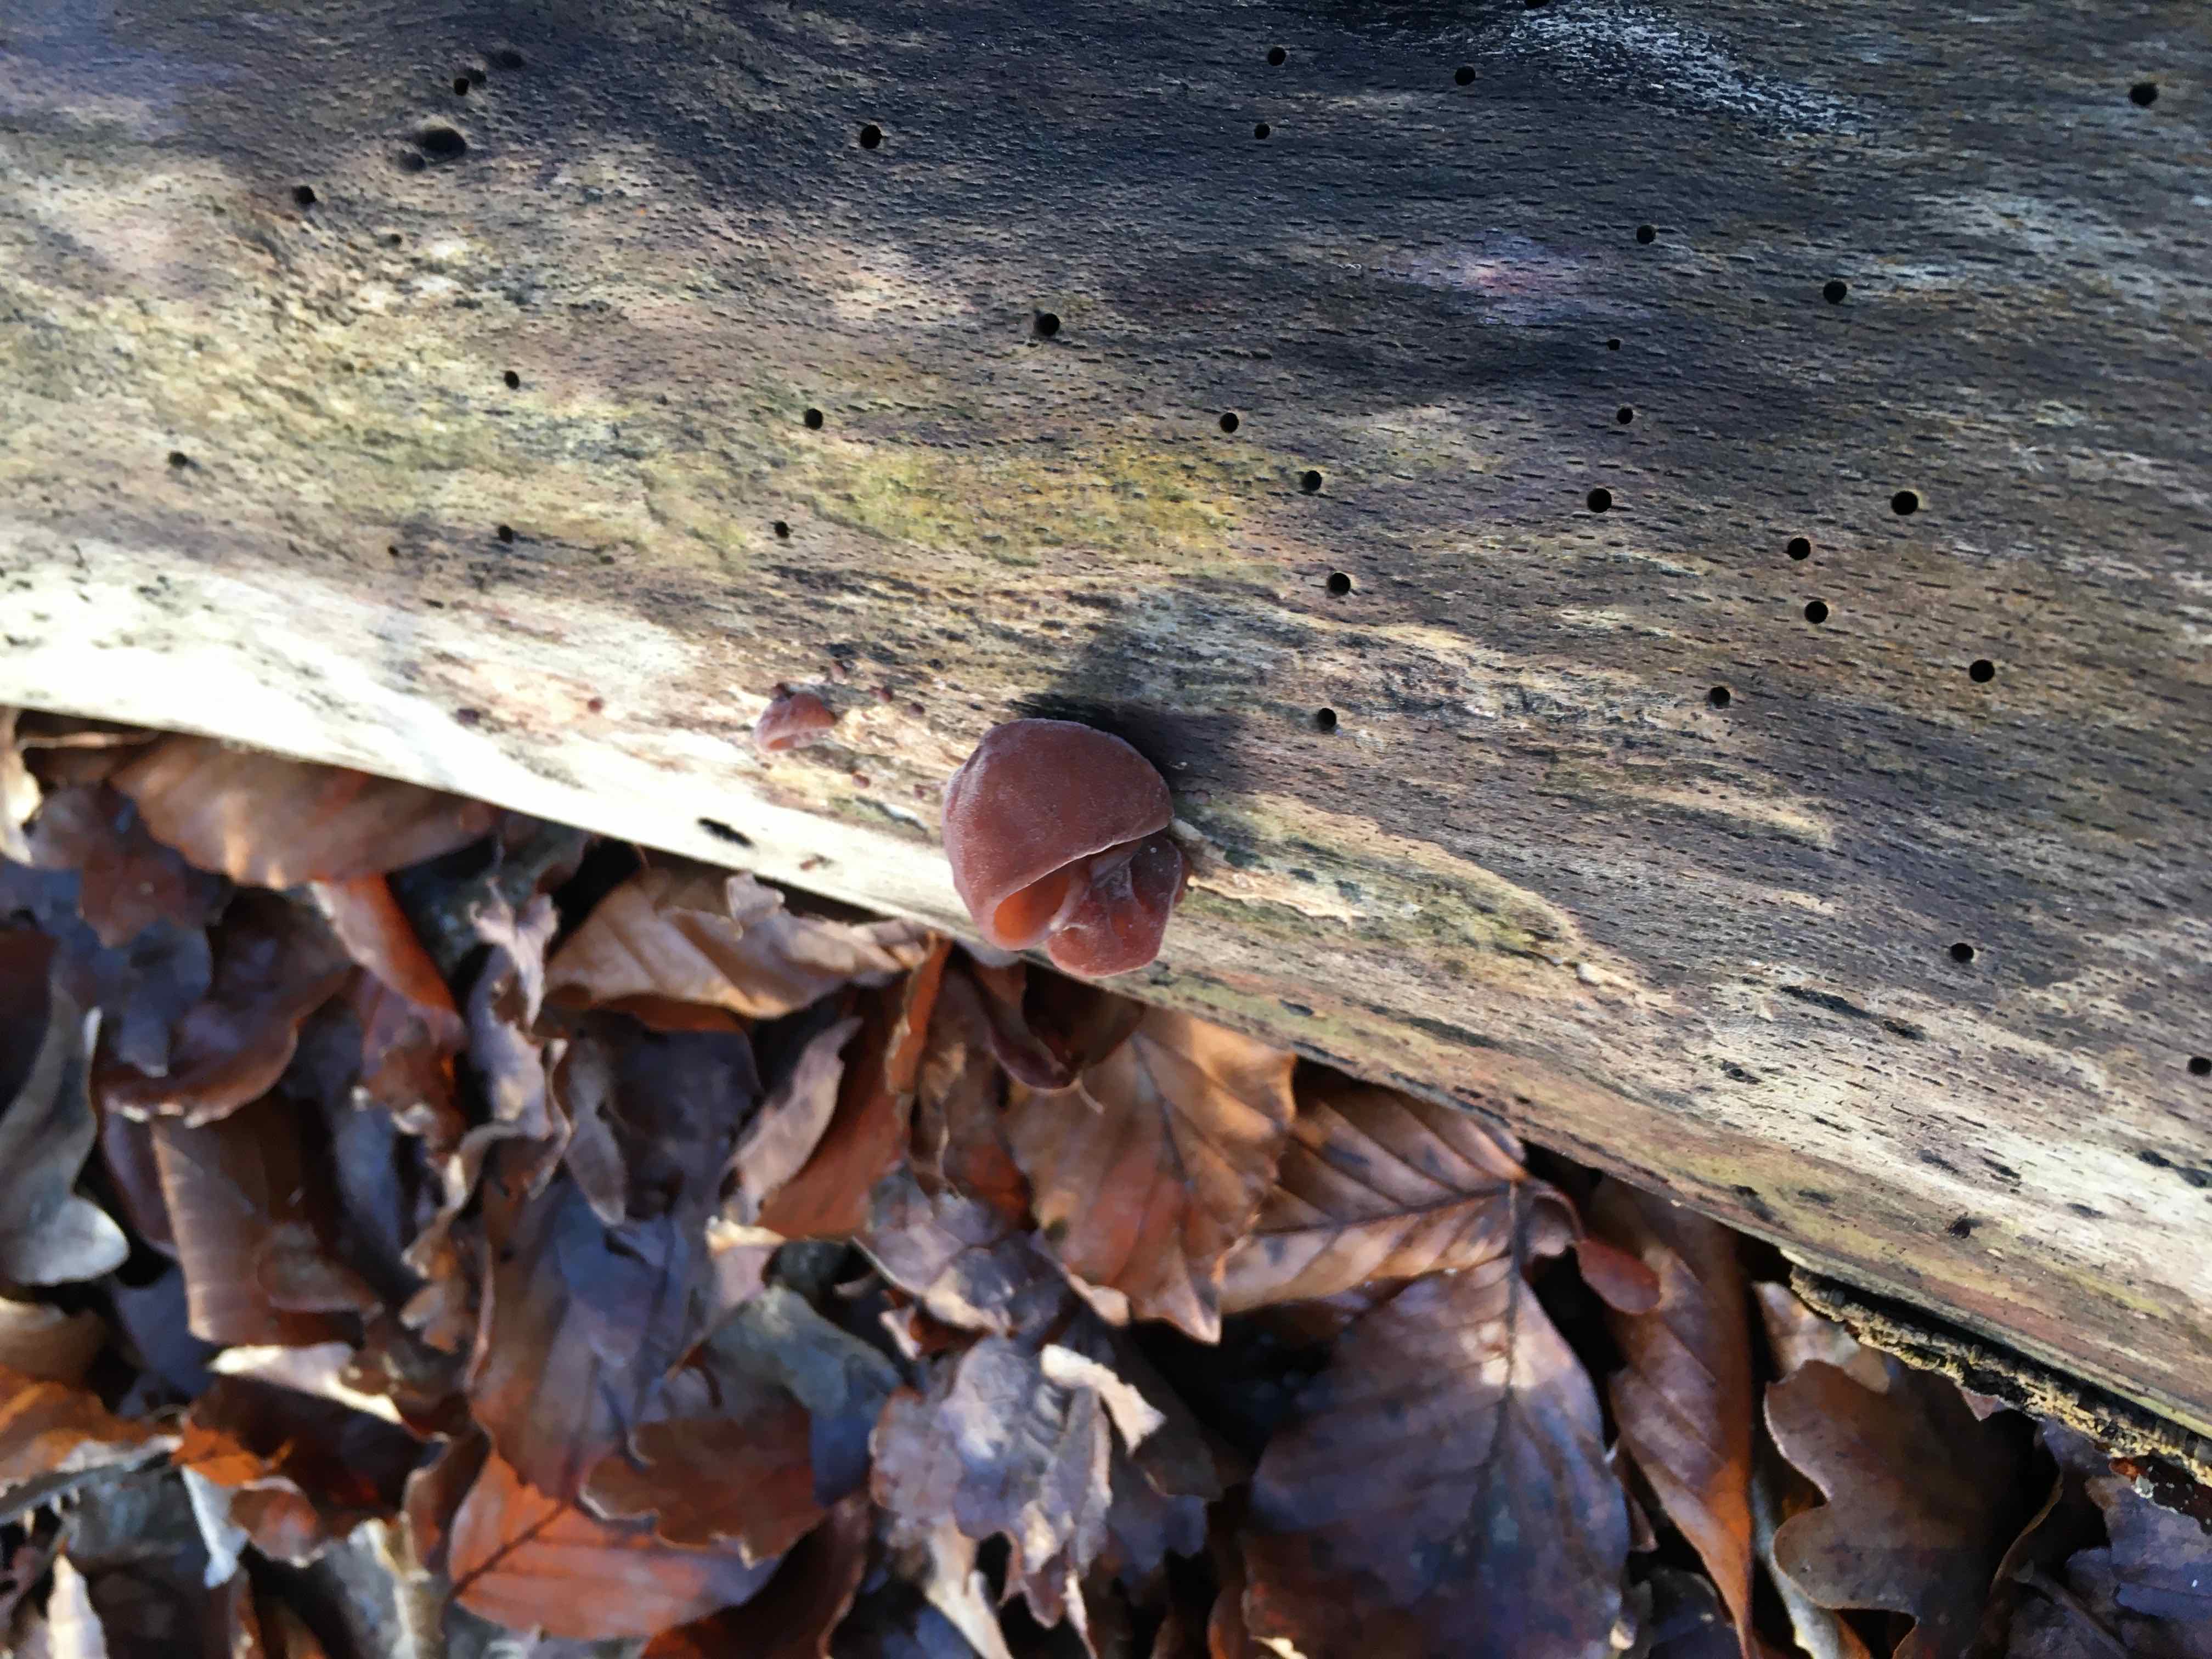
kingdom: Fungi
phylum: Basidiomycota
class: Agaricomycetes
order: Auriculariales
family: Auriculariaceae
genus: Auricularia
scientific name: Auricularia auricula-judae
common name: almindelig judasøre
